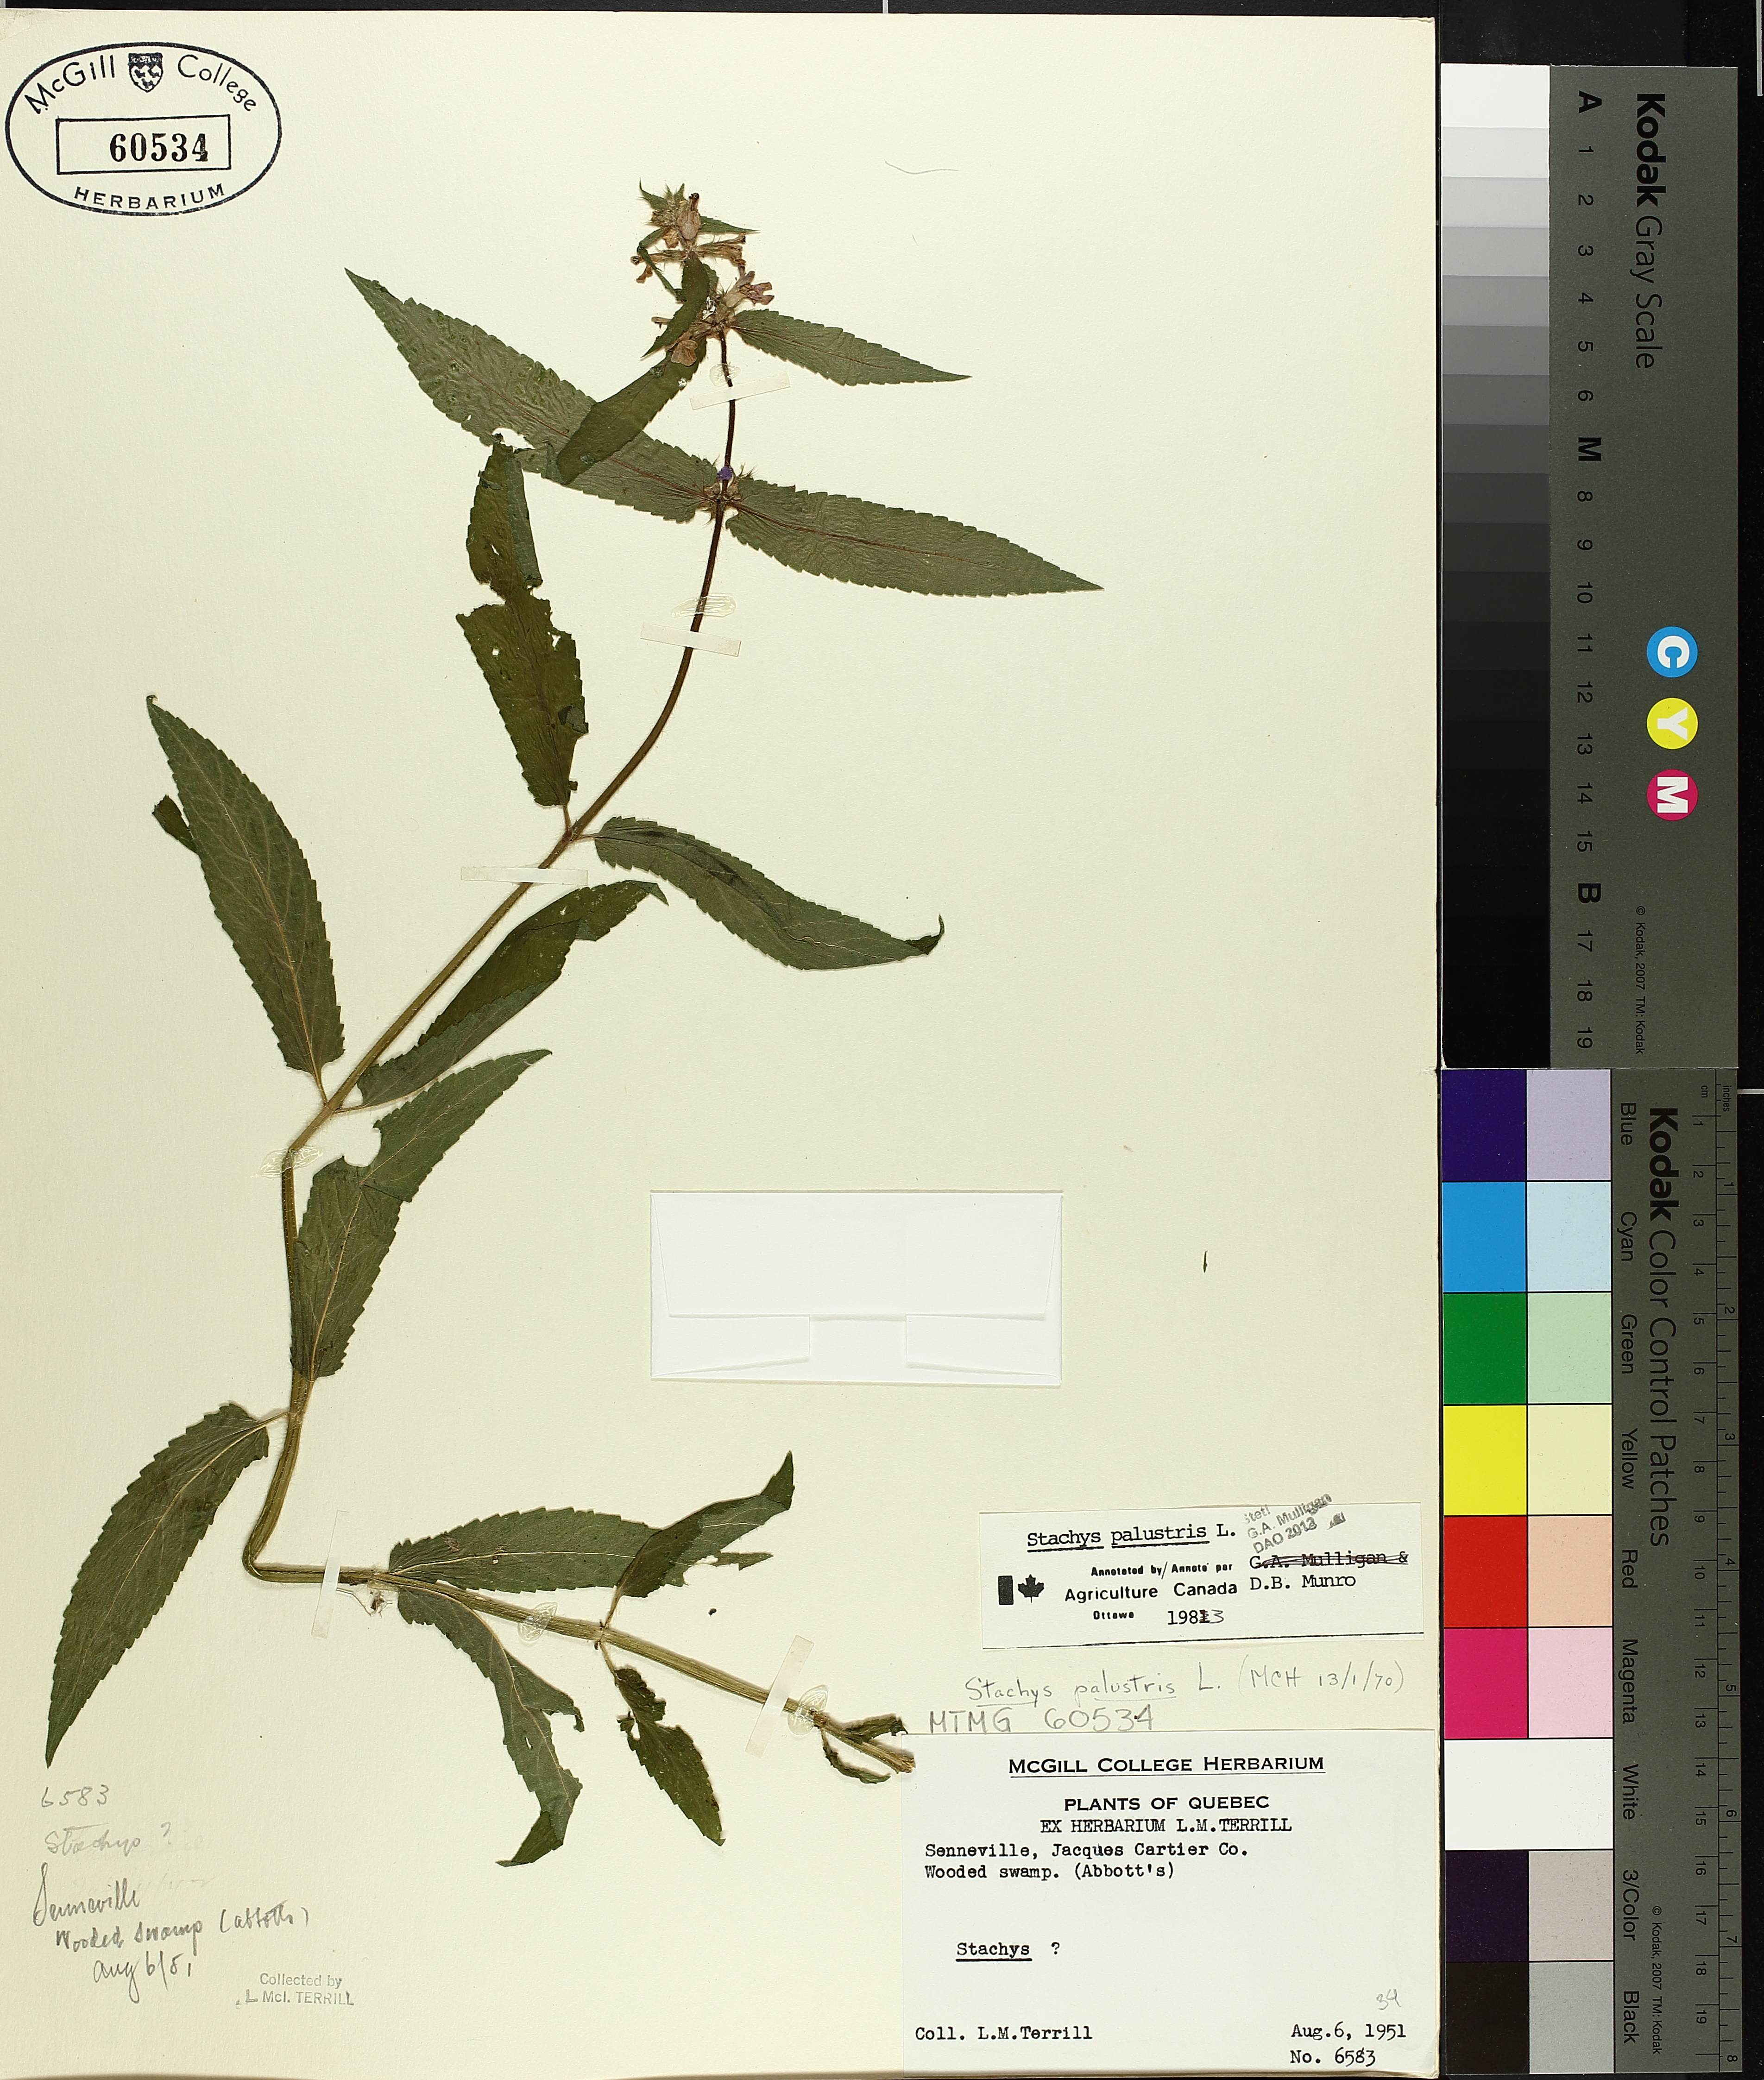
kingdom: Plantae
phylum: Tracheophyta
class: Magnoliopsida
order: Lamiales
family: Lamiaceae
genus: Stachys
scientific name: Stachys palustris
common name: Marsh woundwort
